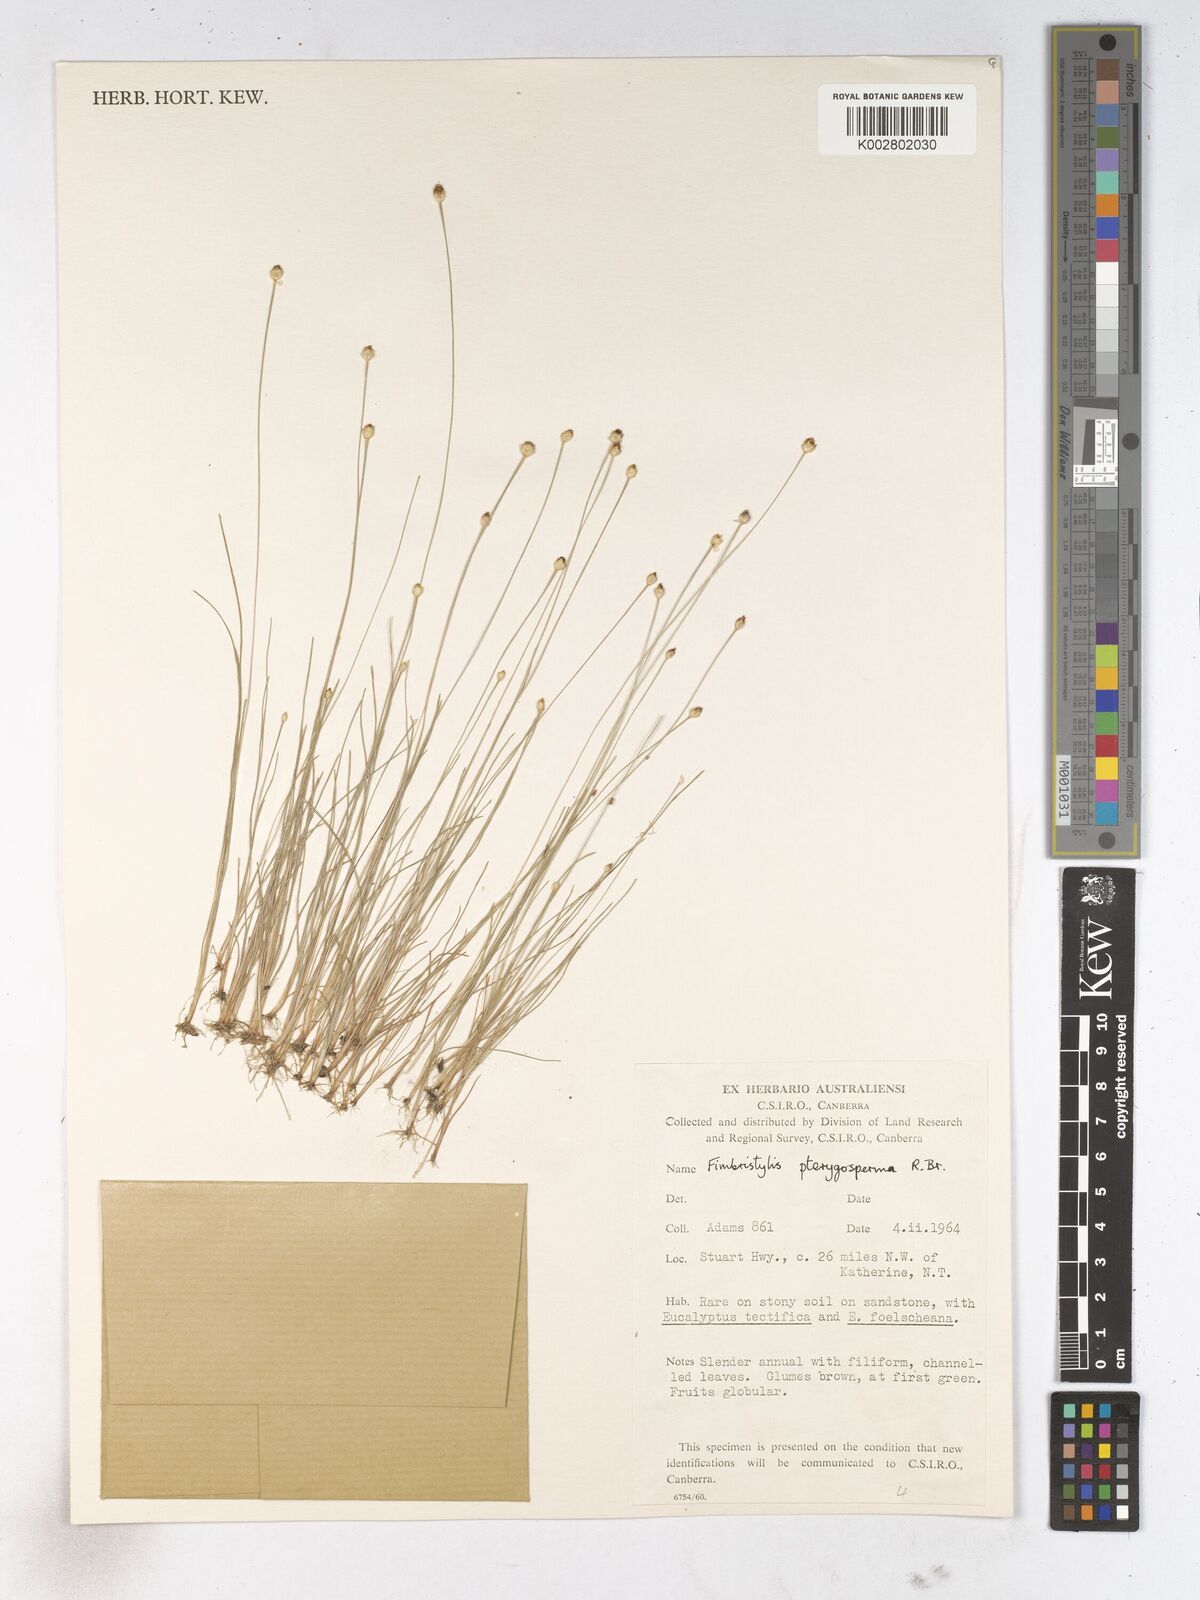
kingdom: Plantae
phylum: Tracheophyta
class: Liliopsida
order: Poales
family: Cyperaceae
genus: Fimbristylis
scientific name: Fimbristylis pterigosperma
